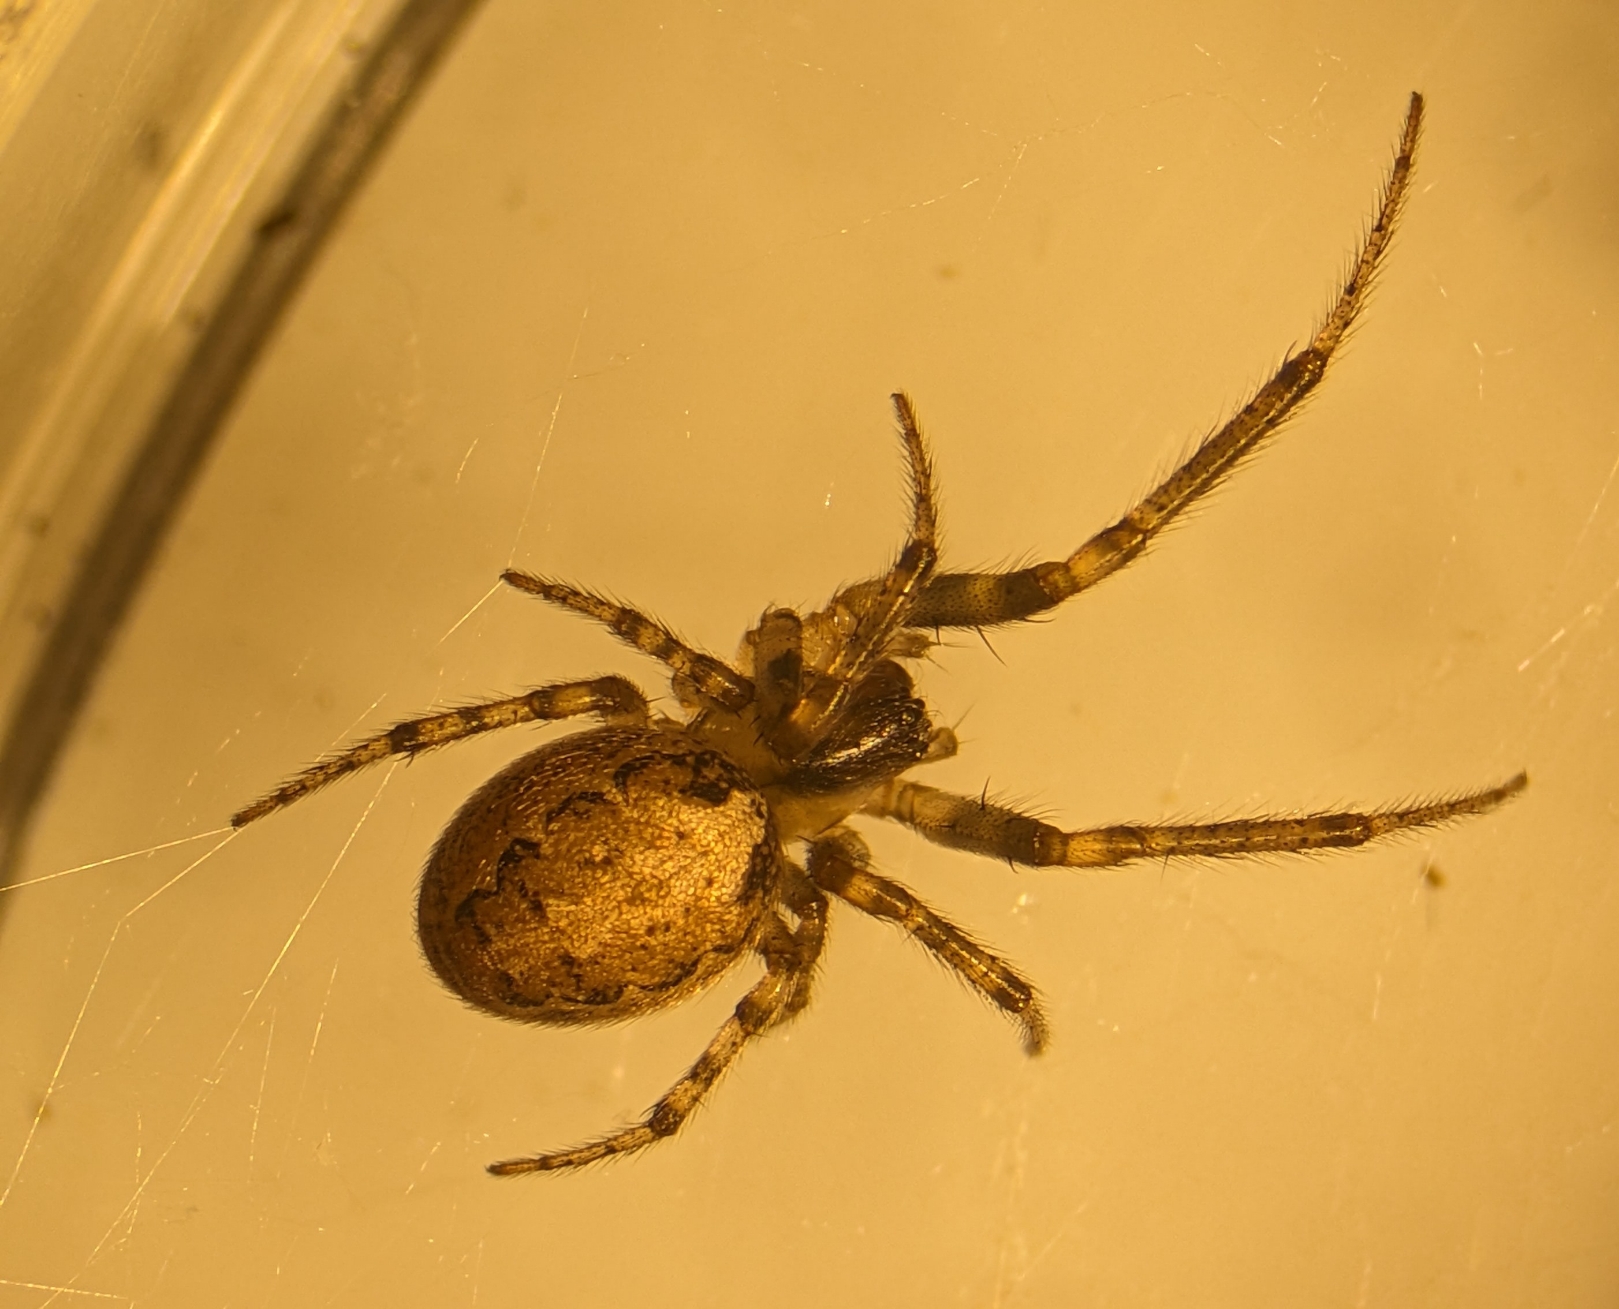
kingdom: Animalia
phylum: Arthropoda
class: Arachnida
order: Araneae
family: Araneidae
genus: Zygiella
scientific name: Zygiella x-notata
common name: Grå sektoredderkop
